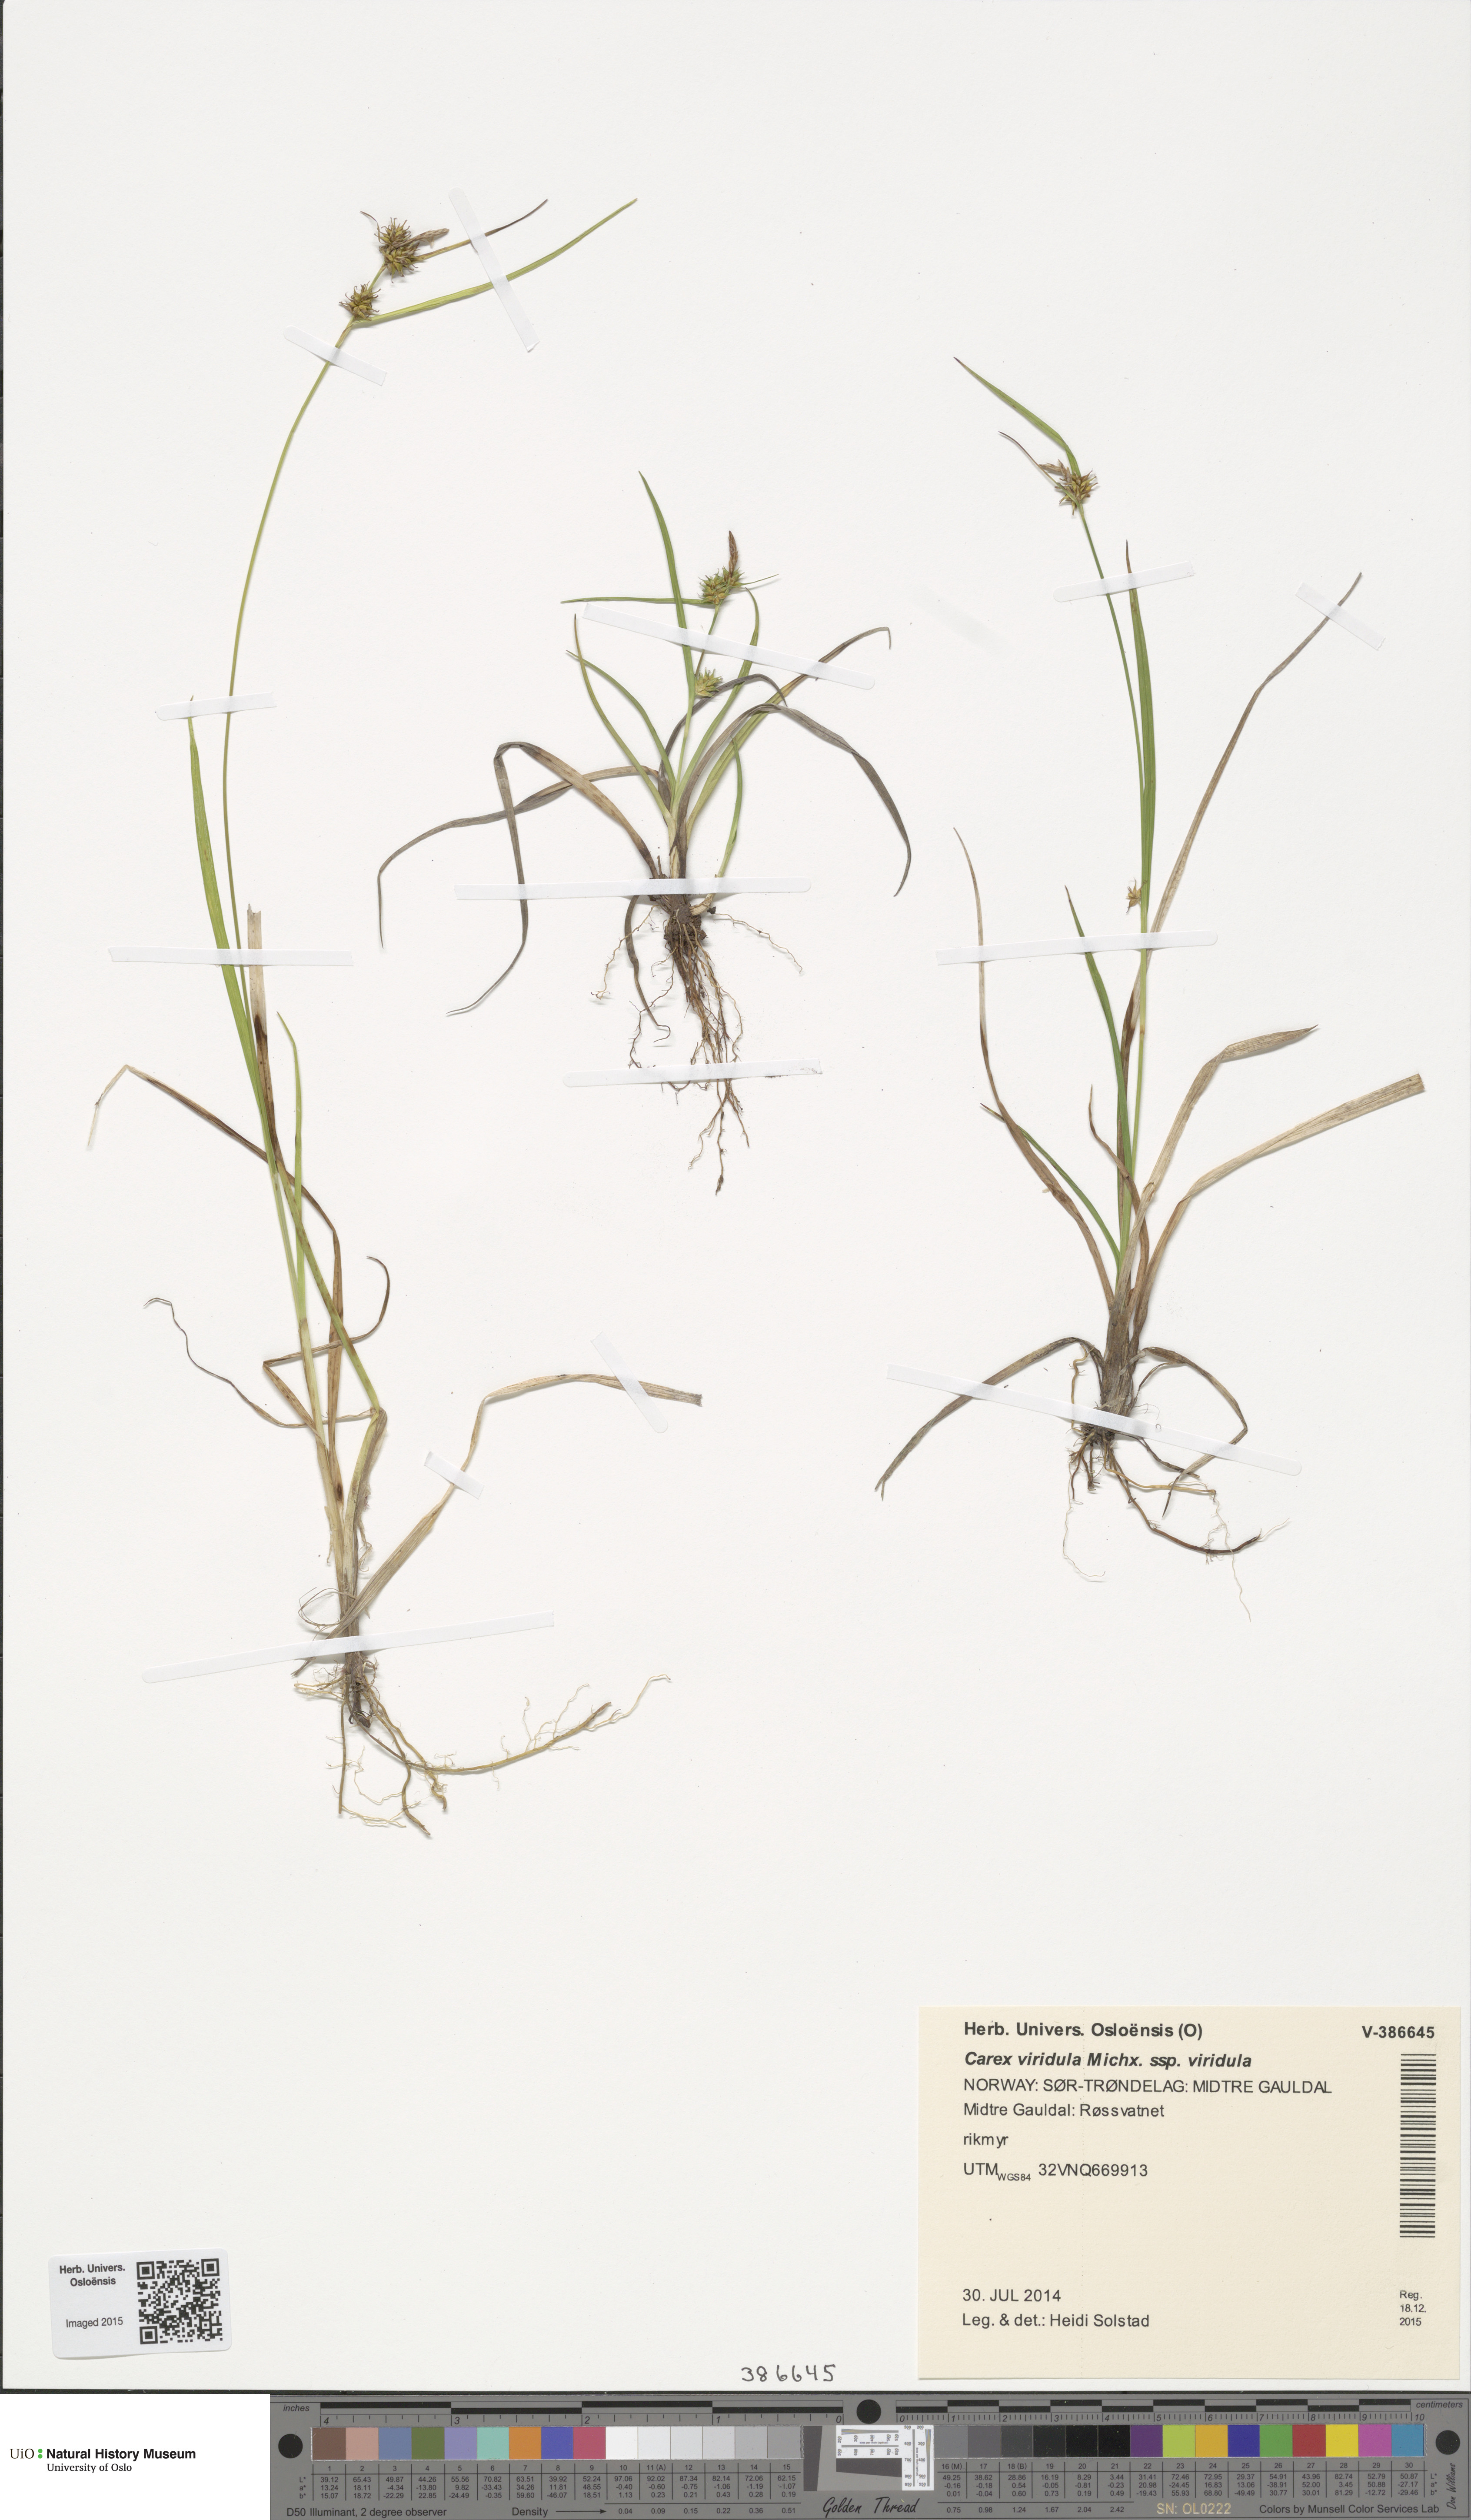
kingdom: Plantae
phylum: Tracheophyta
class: Liliopsida
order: Poales
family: Cyperaceae
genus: Carex
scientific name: Carex oederi
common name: Common & small-fruited yellow-sedge
